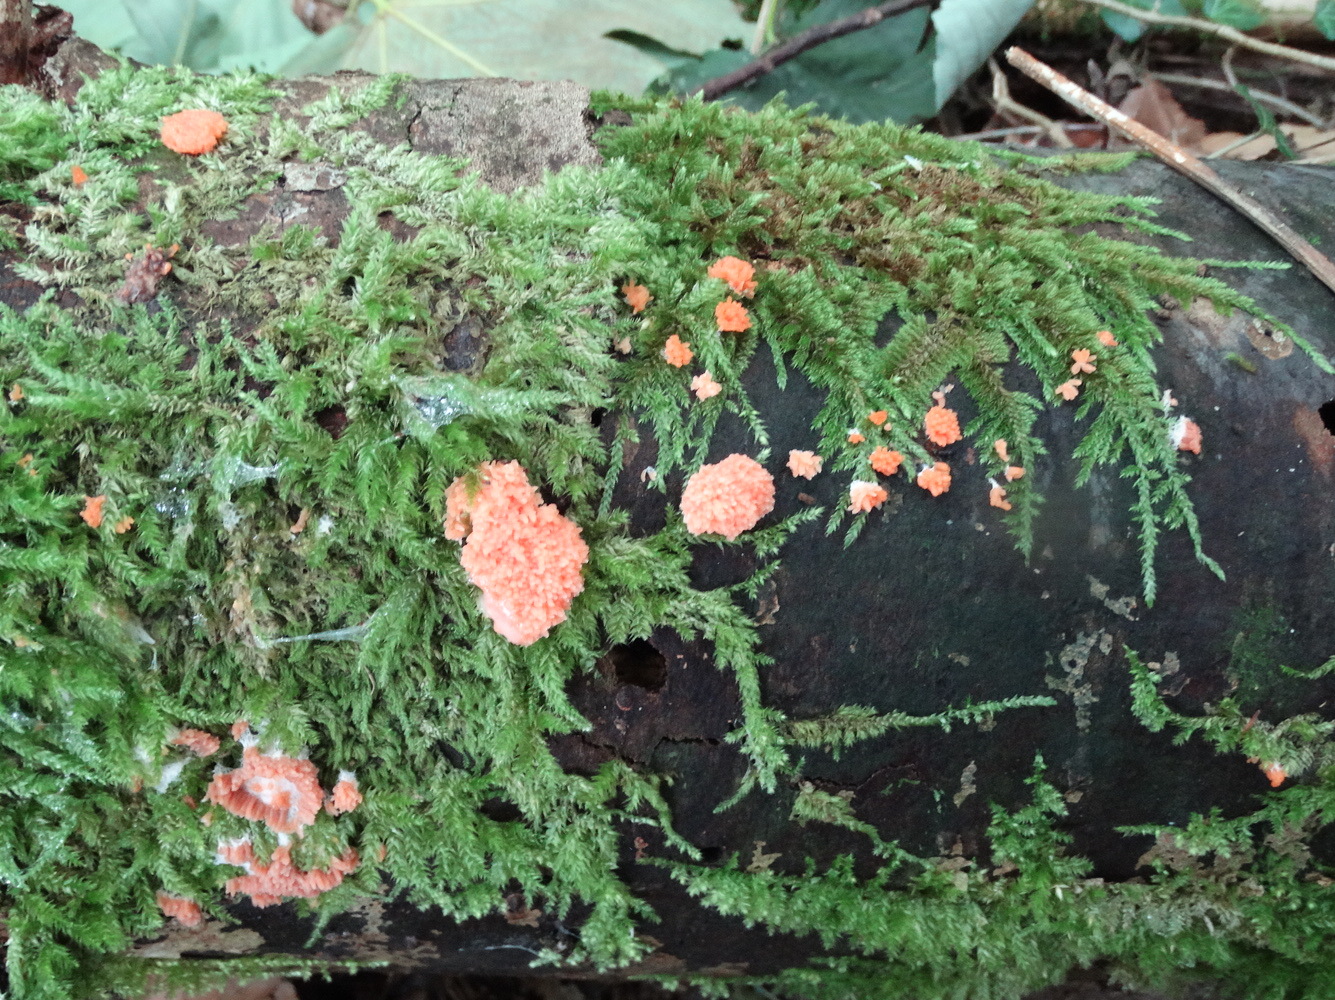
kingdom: Protozoa
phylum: Mycetozoa
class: Myxomycetes
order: Cribrariales
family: Tubiferaceae
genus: Tubifera
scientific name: Tubifera ferruginosa
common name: kanel-støvrør
